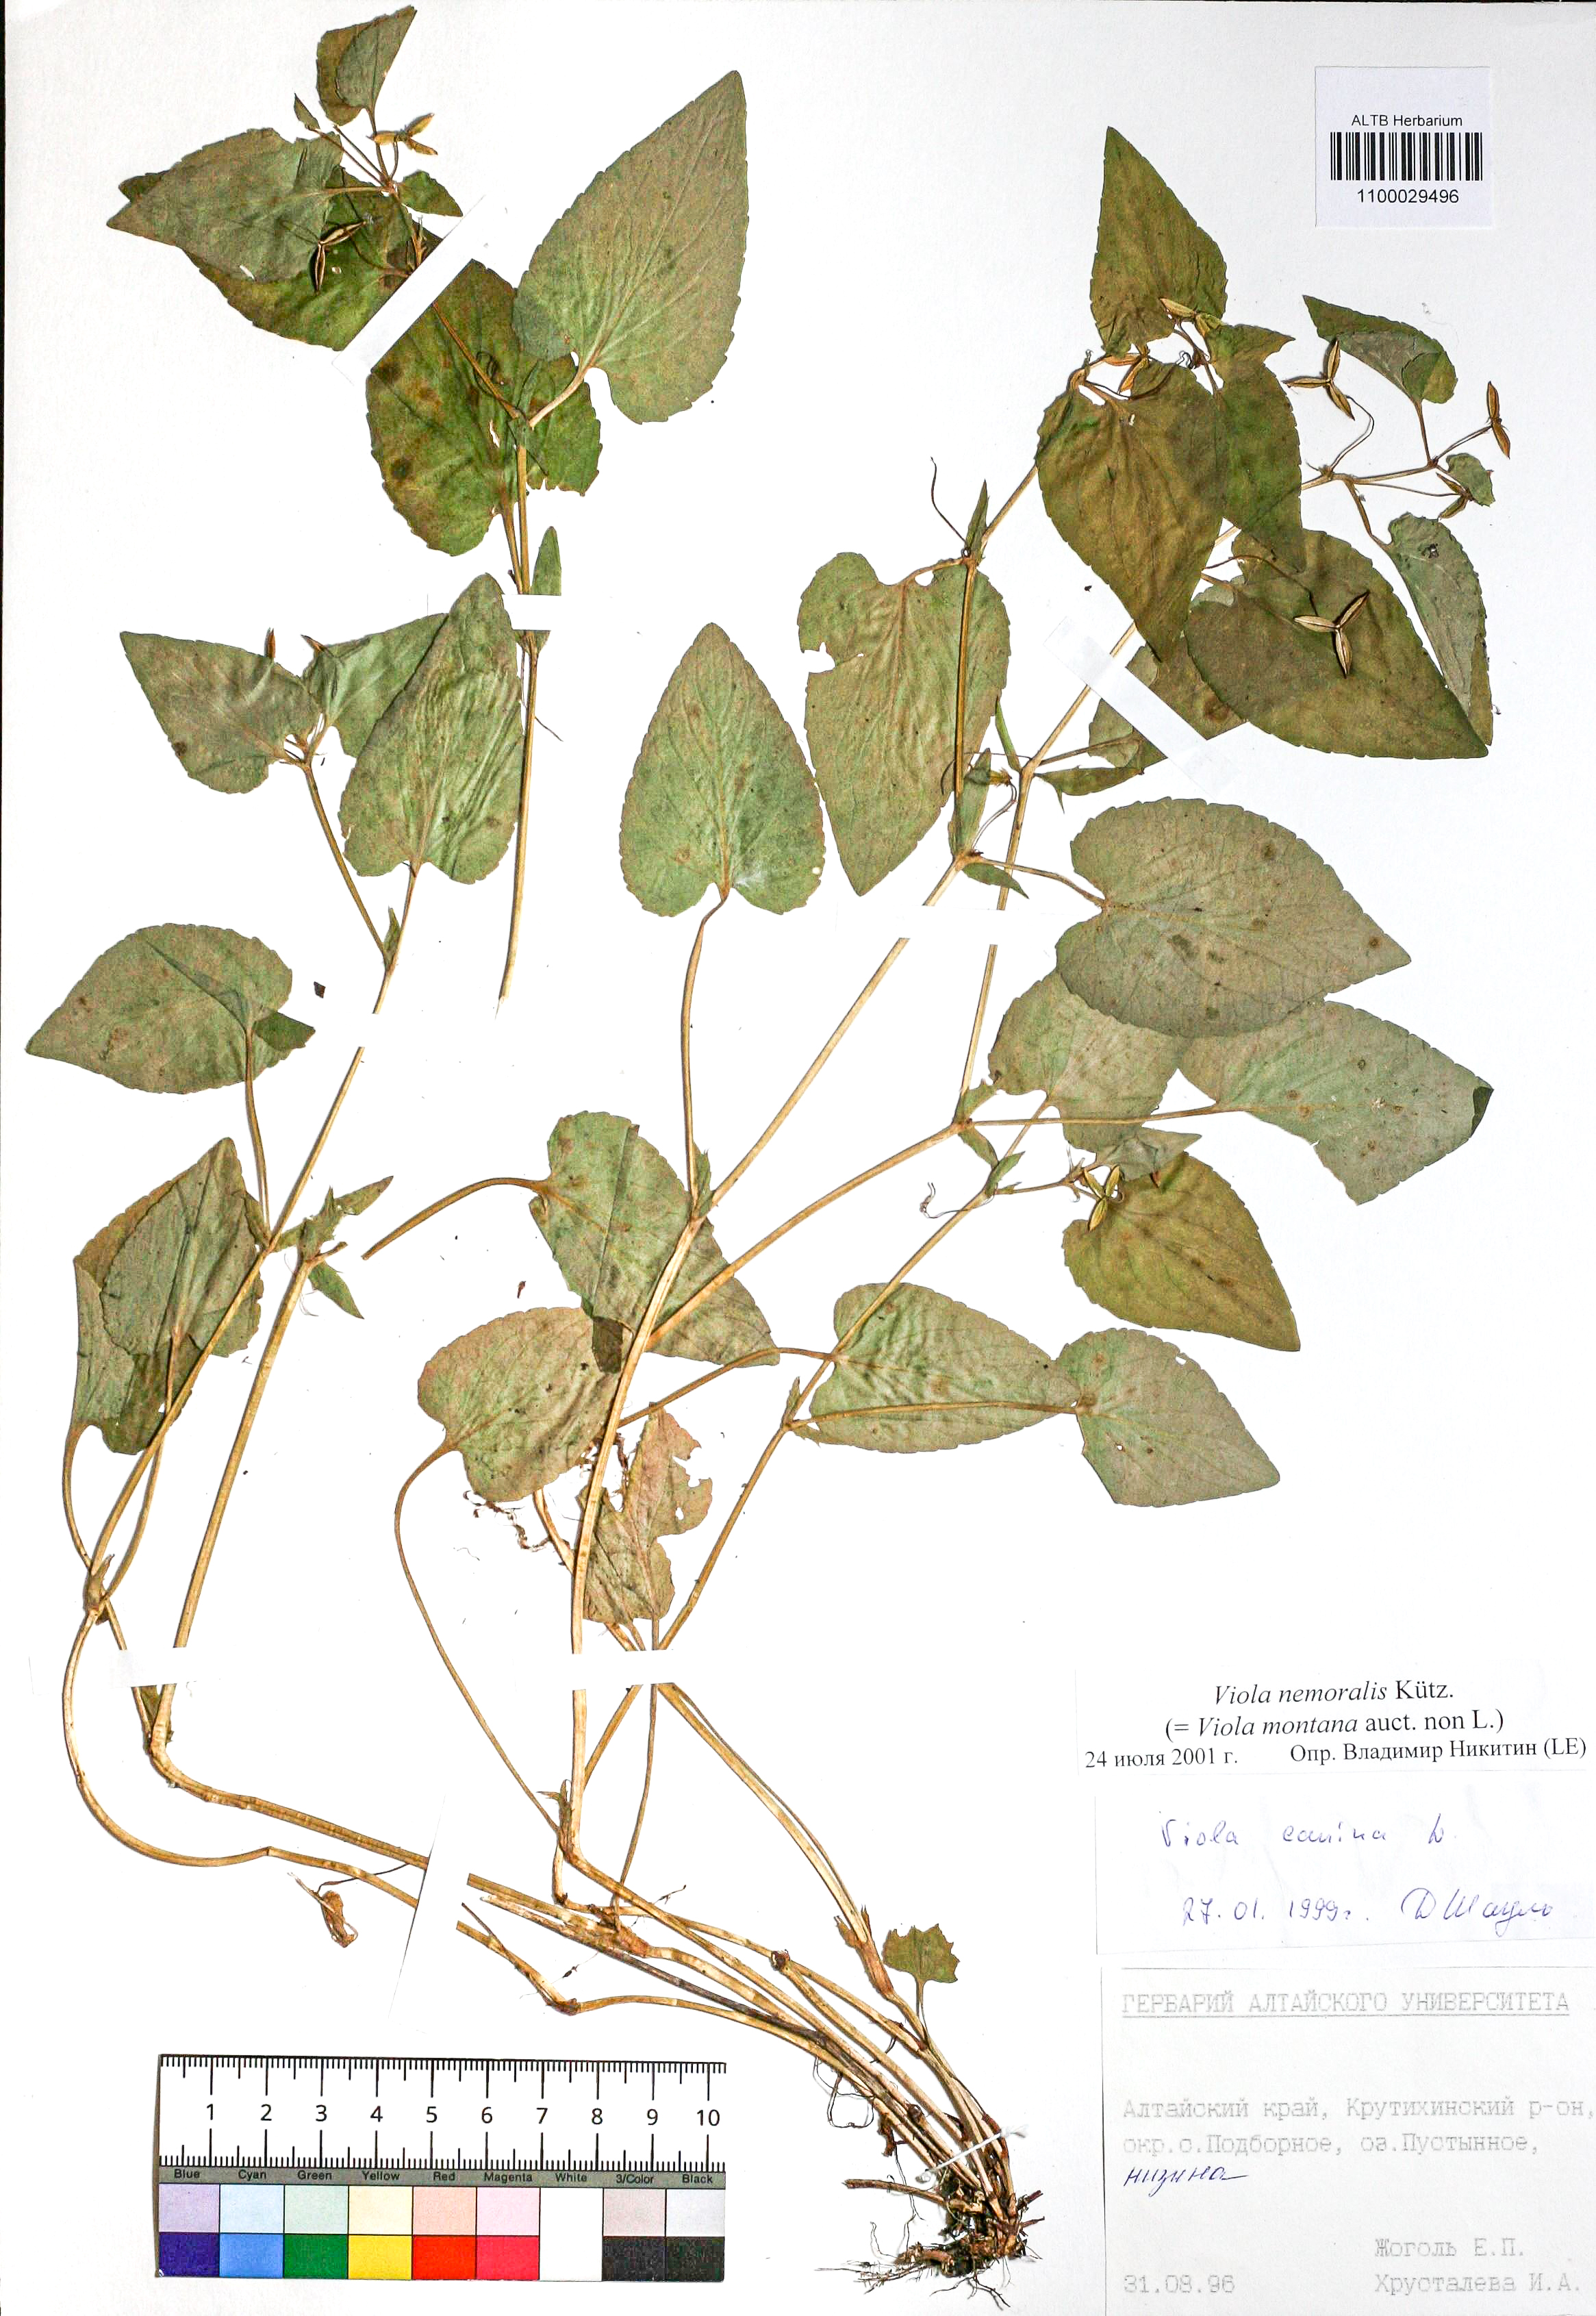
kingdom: Plantae
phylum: Tracheophyta
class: Magnoliopsida
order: Malpighiales
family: Violaceae
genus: Viola
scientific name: Viola ruppii
